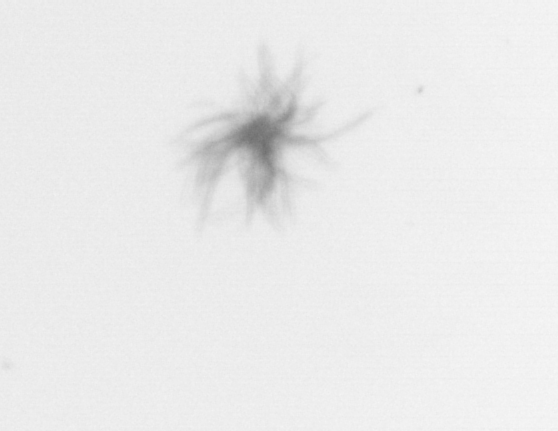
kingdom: Bacteria
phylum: Cyanobacteria
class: Cyanobacteriia
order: Cyanobacteriales
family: Microcoleaceae
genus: Trichodesmium
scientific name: Trichodesmium
